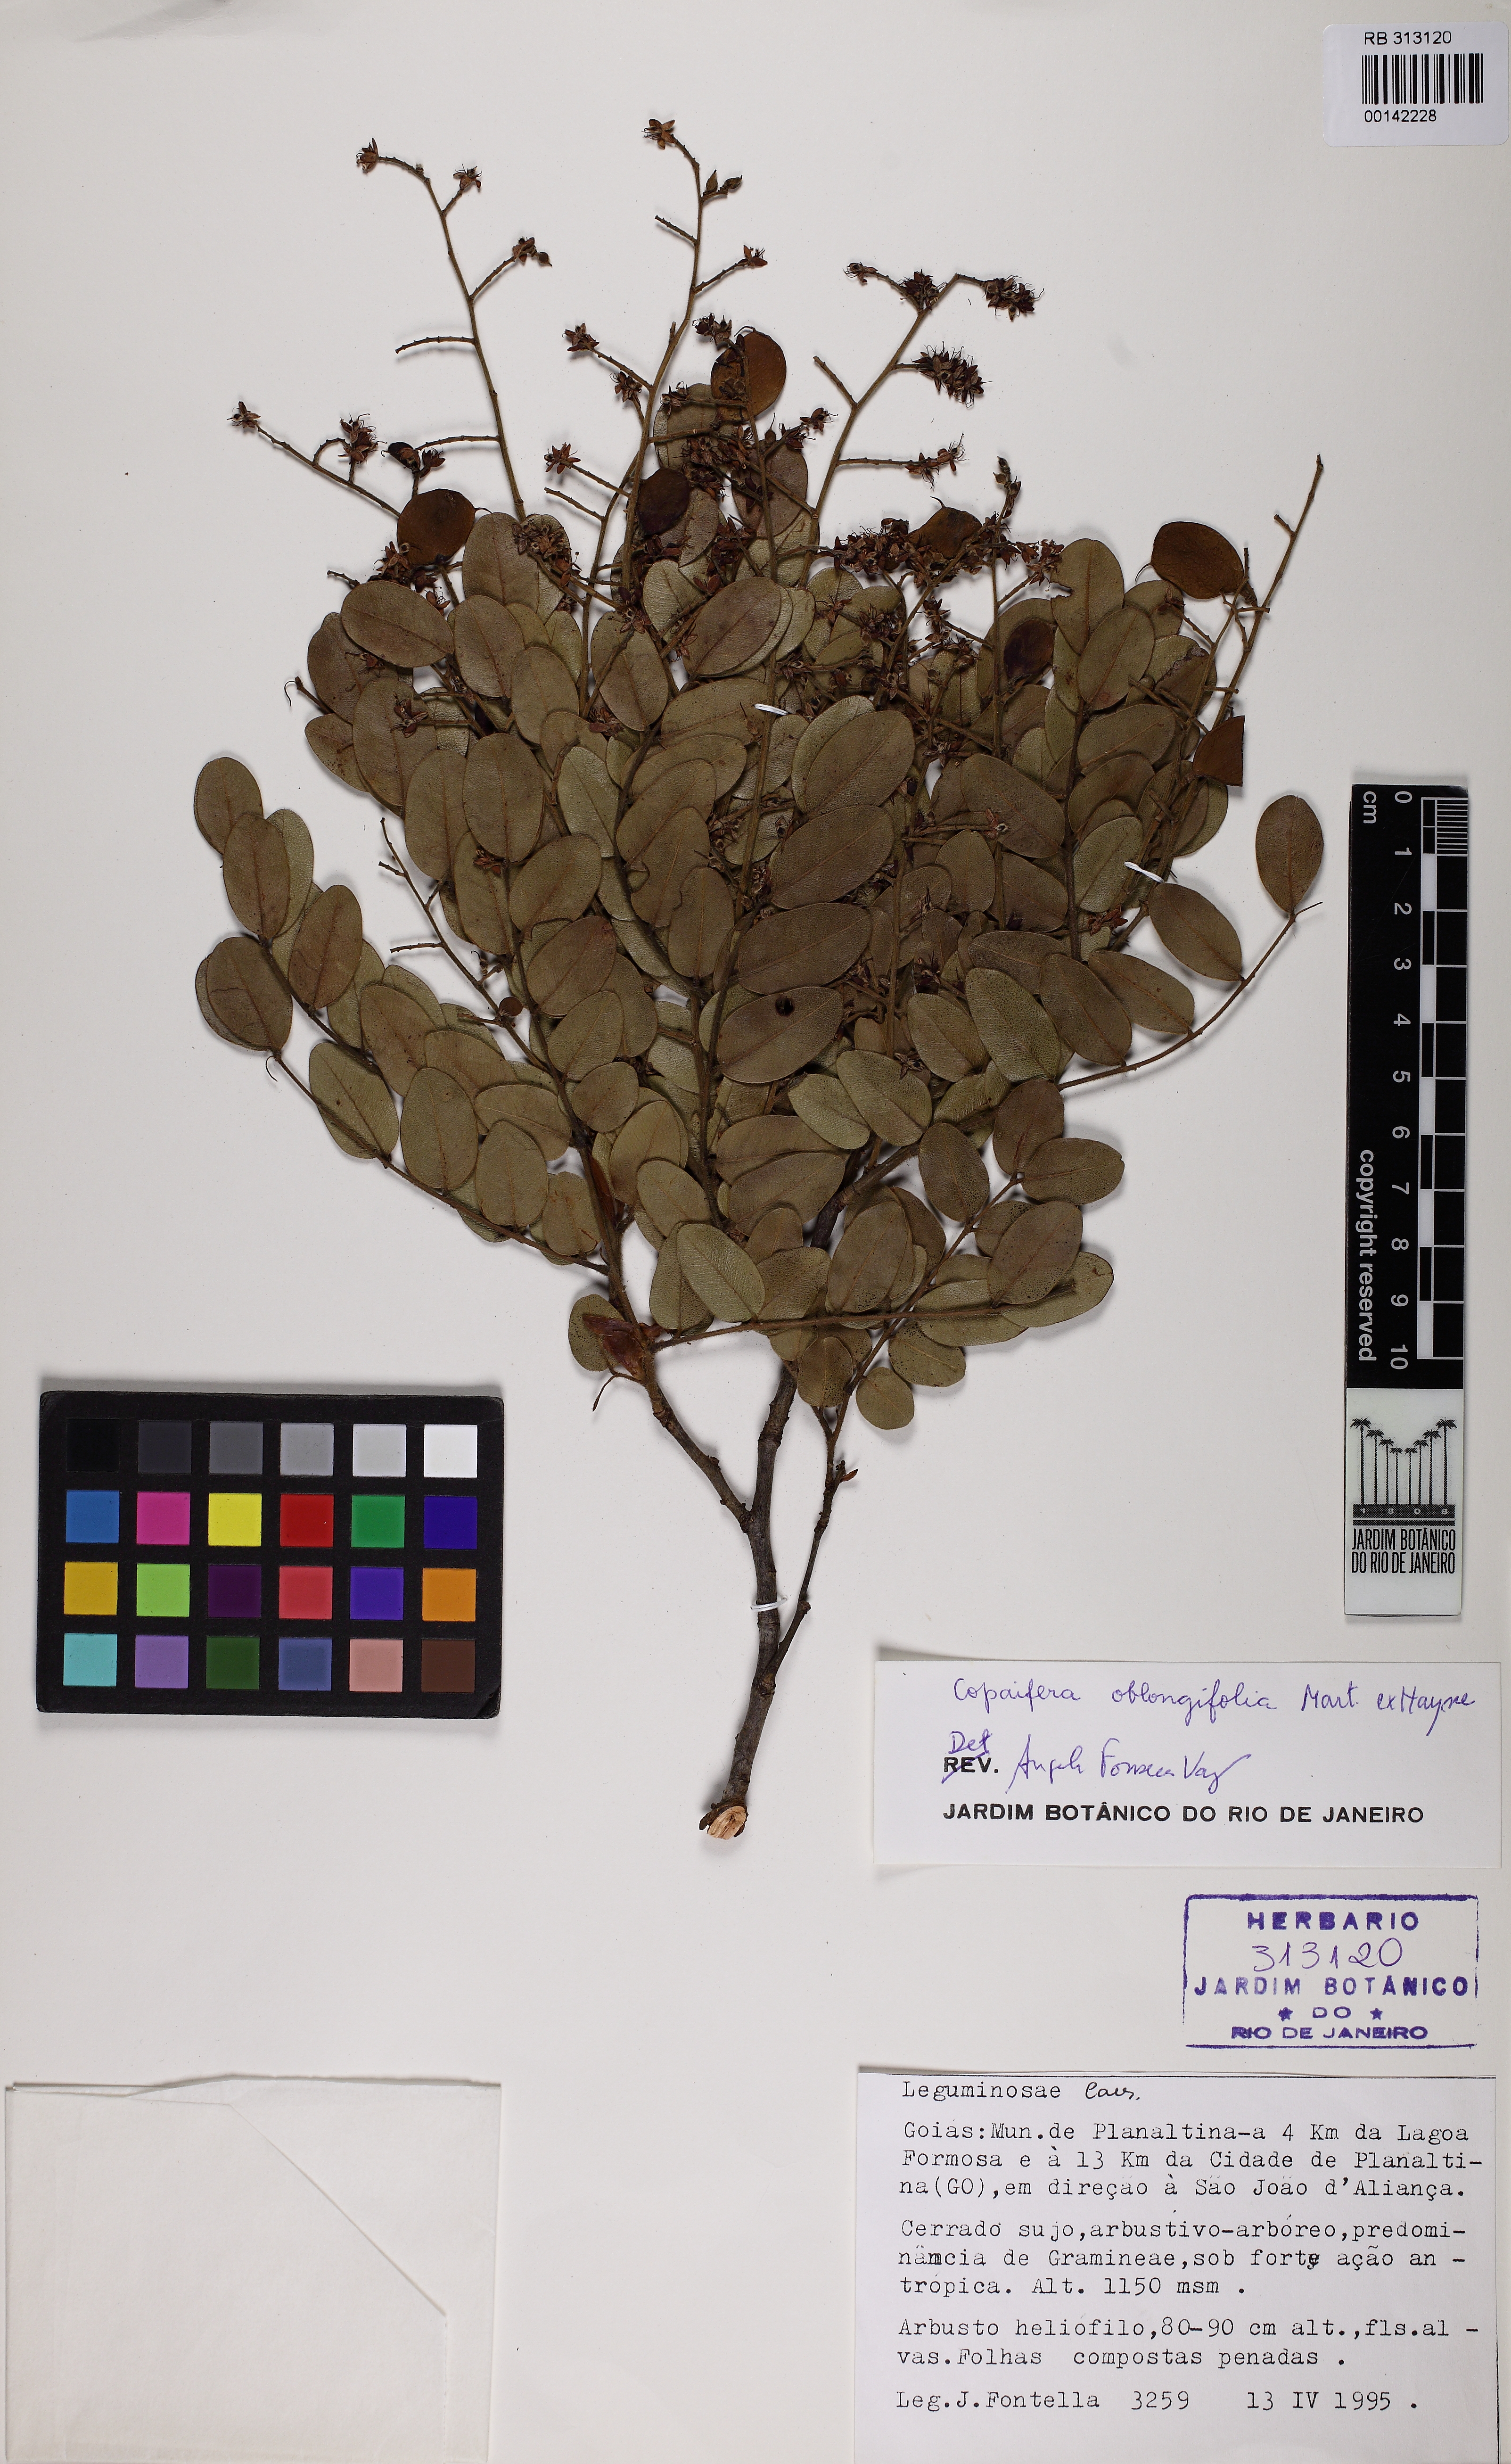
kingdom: Plantae
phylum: Tracheophyta
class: Magnoliopsida
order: Fabales
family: Fabaceae
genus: Copaifera
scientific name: Copaifera oblongifolia
